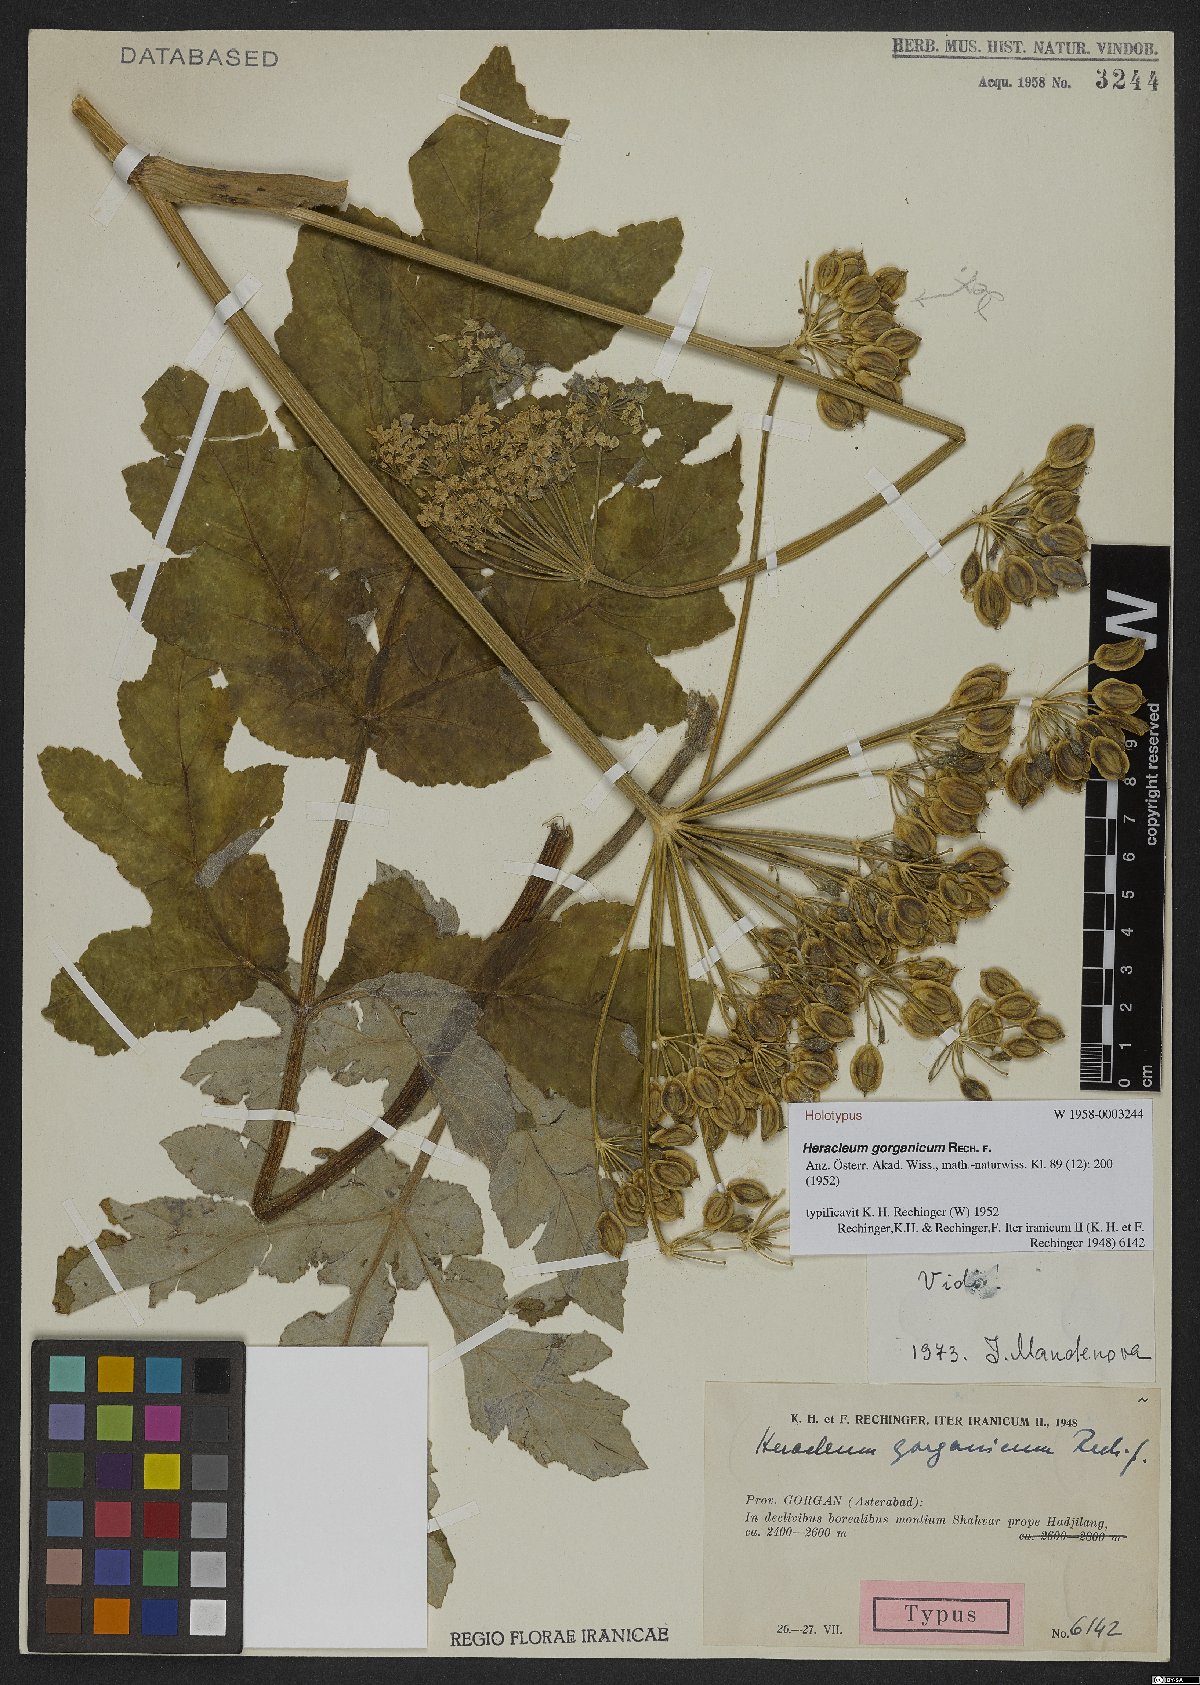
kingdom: Plantae
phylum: Tracheophyta
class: Magnoliopsida
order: Apiales
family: Apiaceae
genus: Heracleum
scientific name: Heracleum gorganicum
